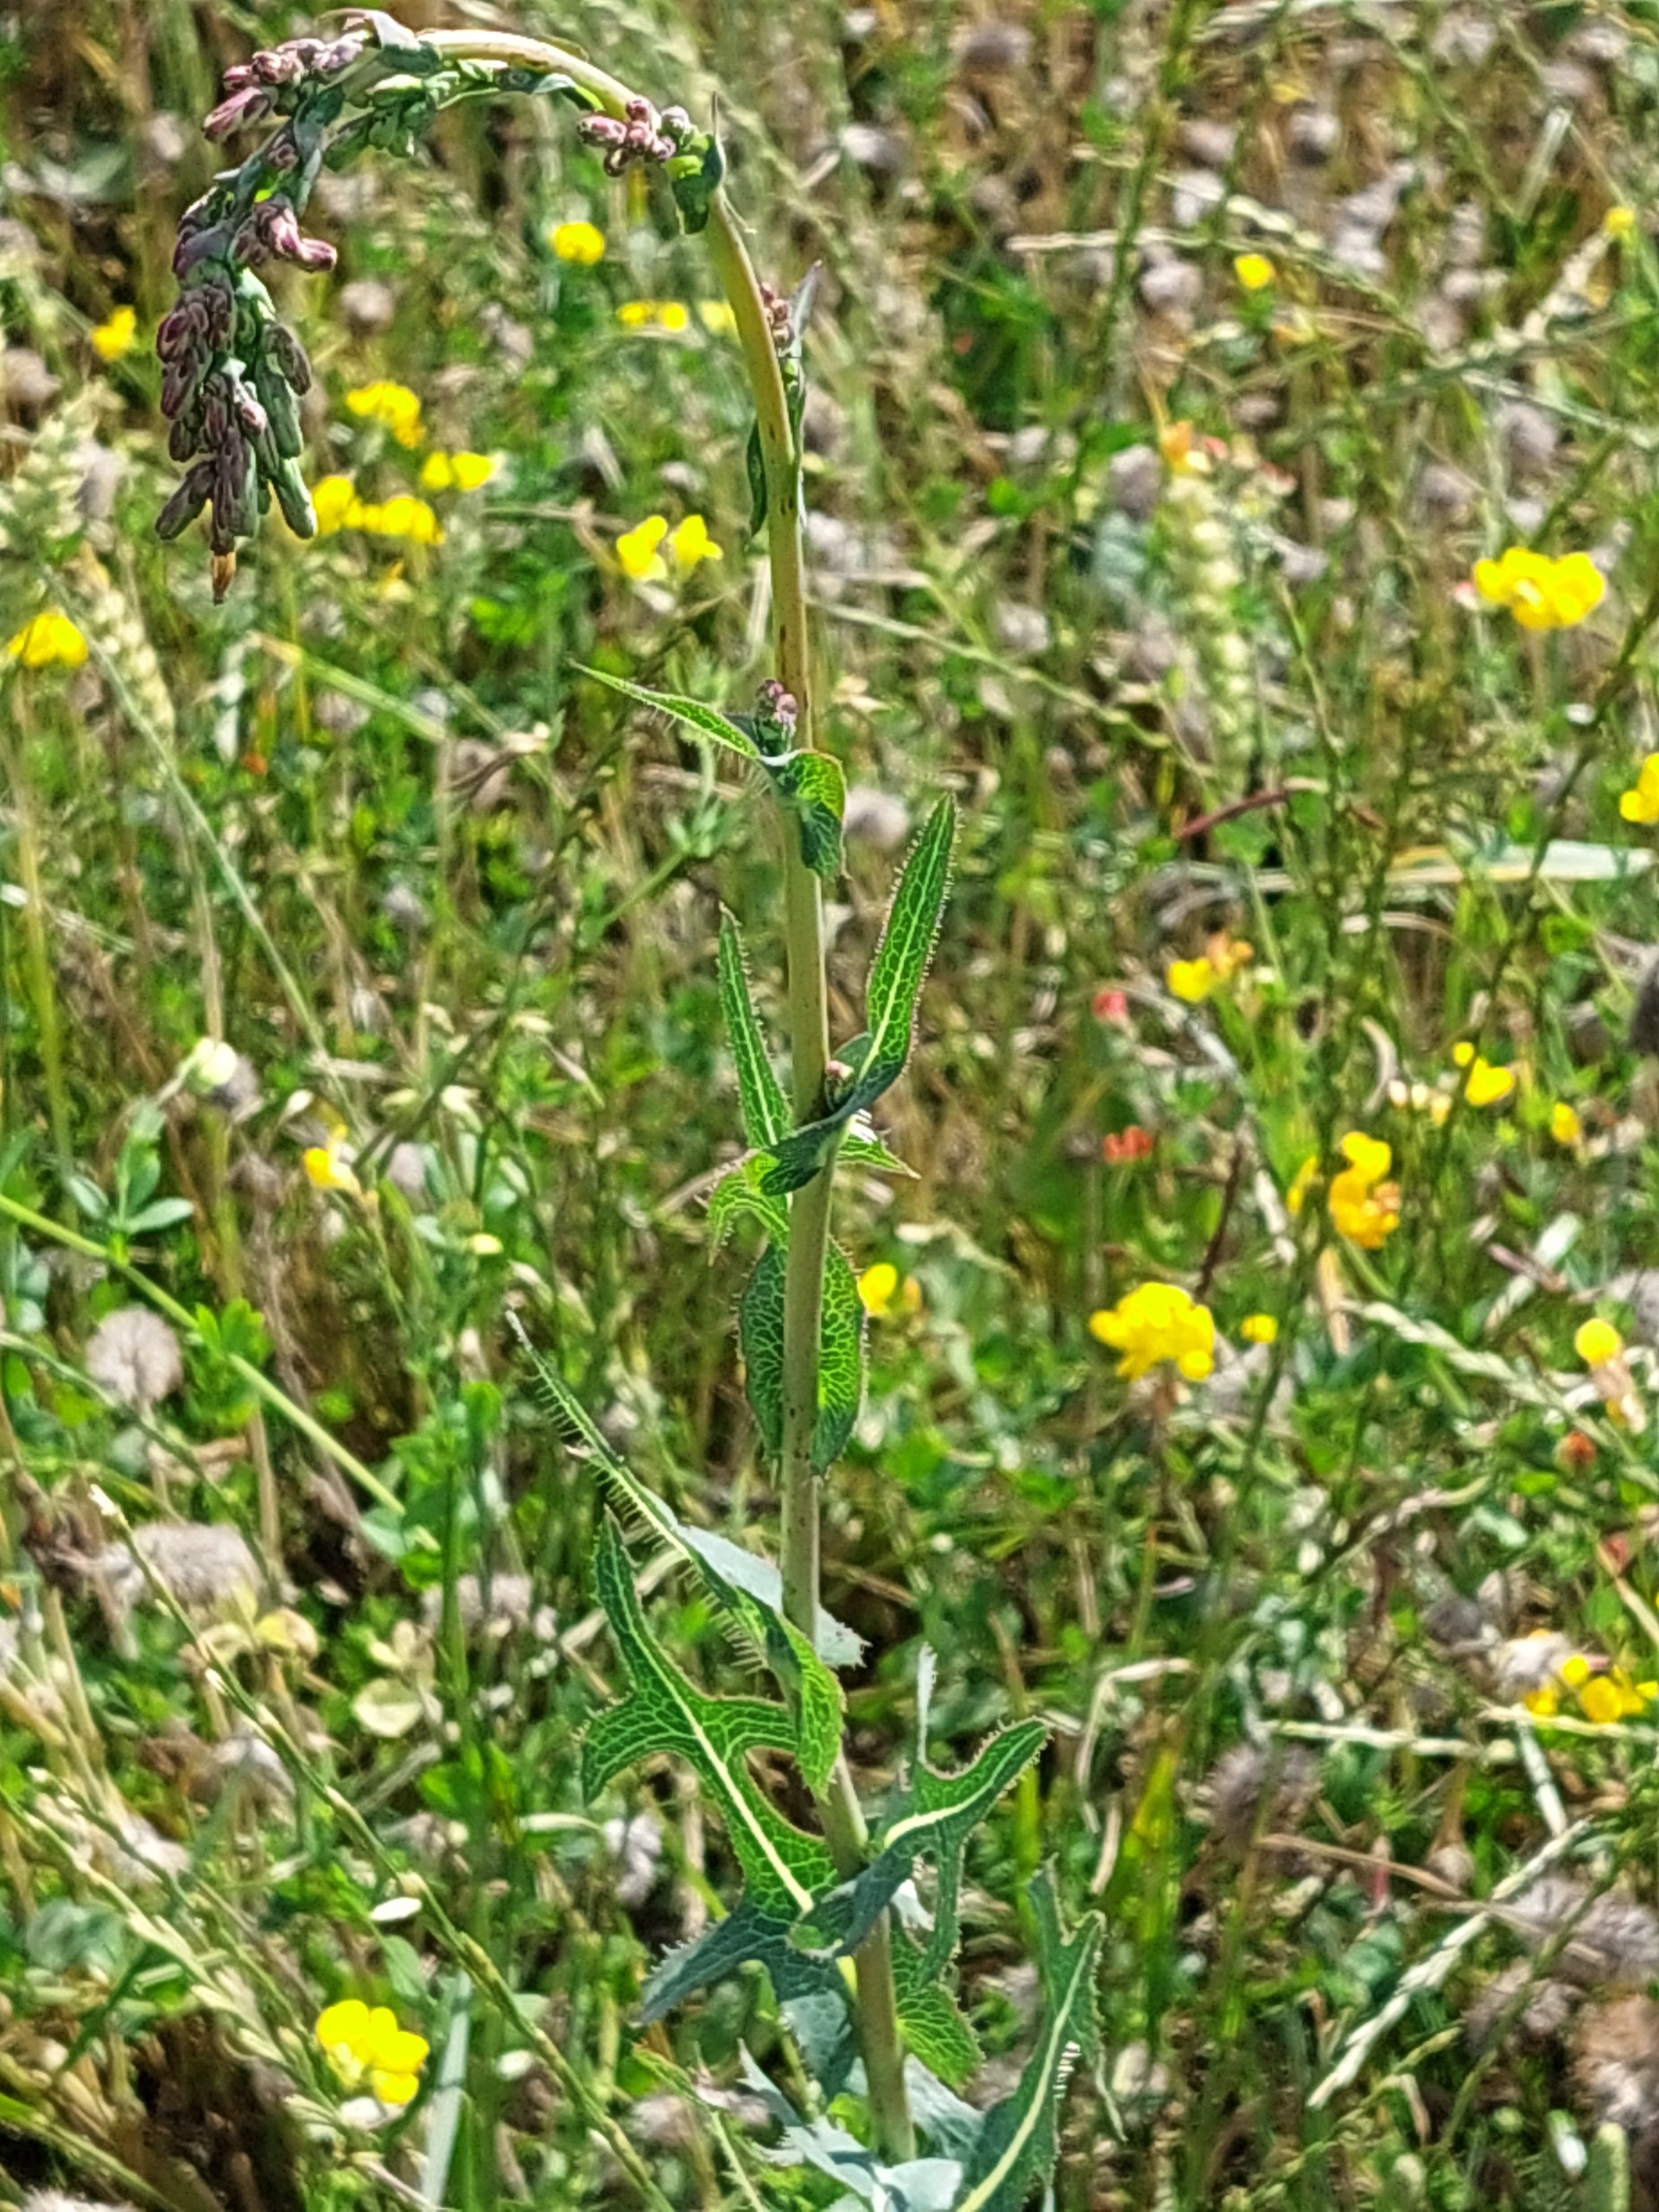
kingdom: Plantae
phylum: Tracheophyta
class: Magnoliopsida
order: Asterales
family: Asteraceae
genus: Lactuca
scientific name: Lactuca serriola
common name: Tornet salat
